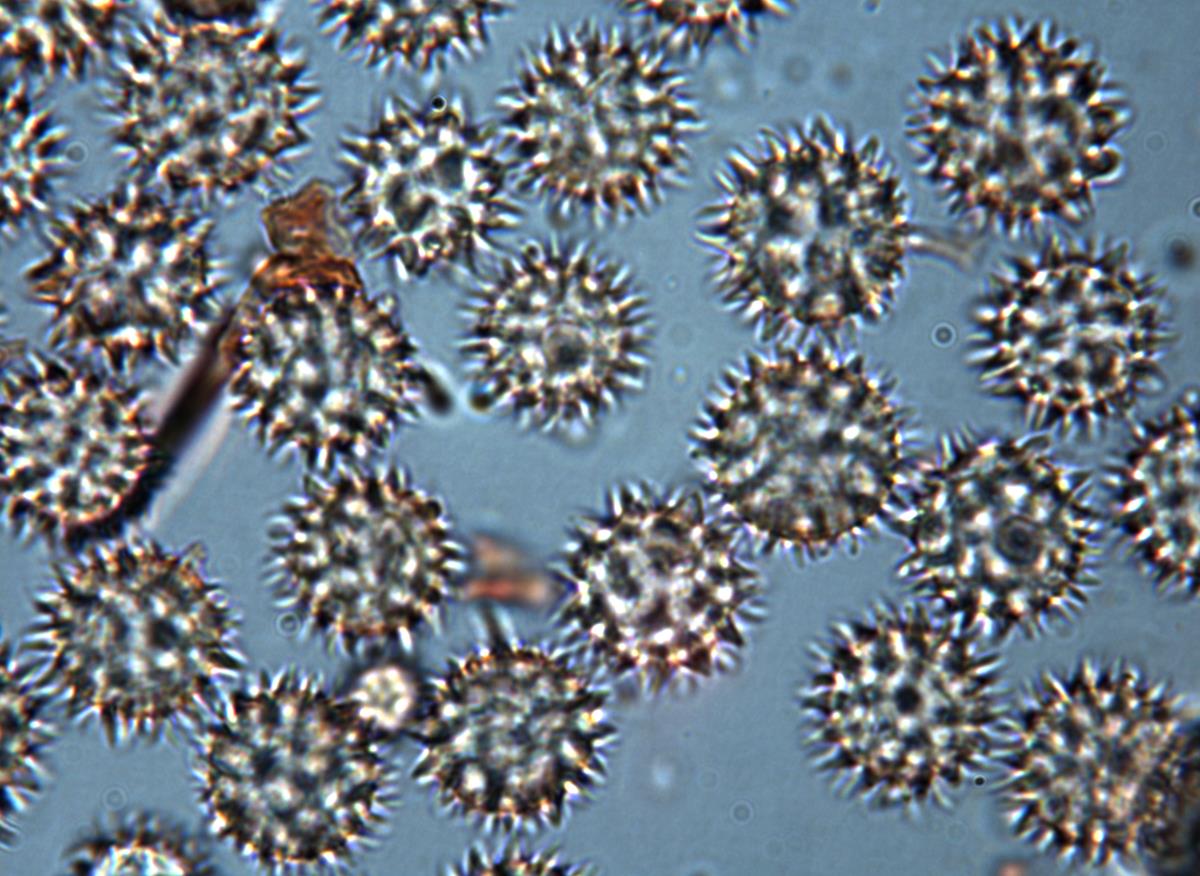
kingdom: Fungi
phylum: Basidiomycota
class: Agaricomycetes
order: Agaricales
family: Hydnangiaceae
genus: Hydnangium
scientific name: Hydnangium kanuka
